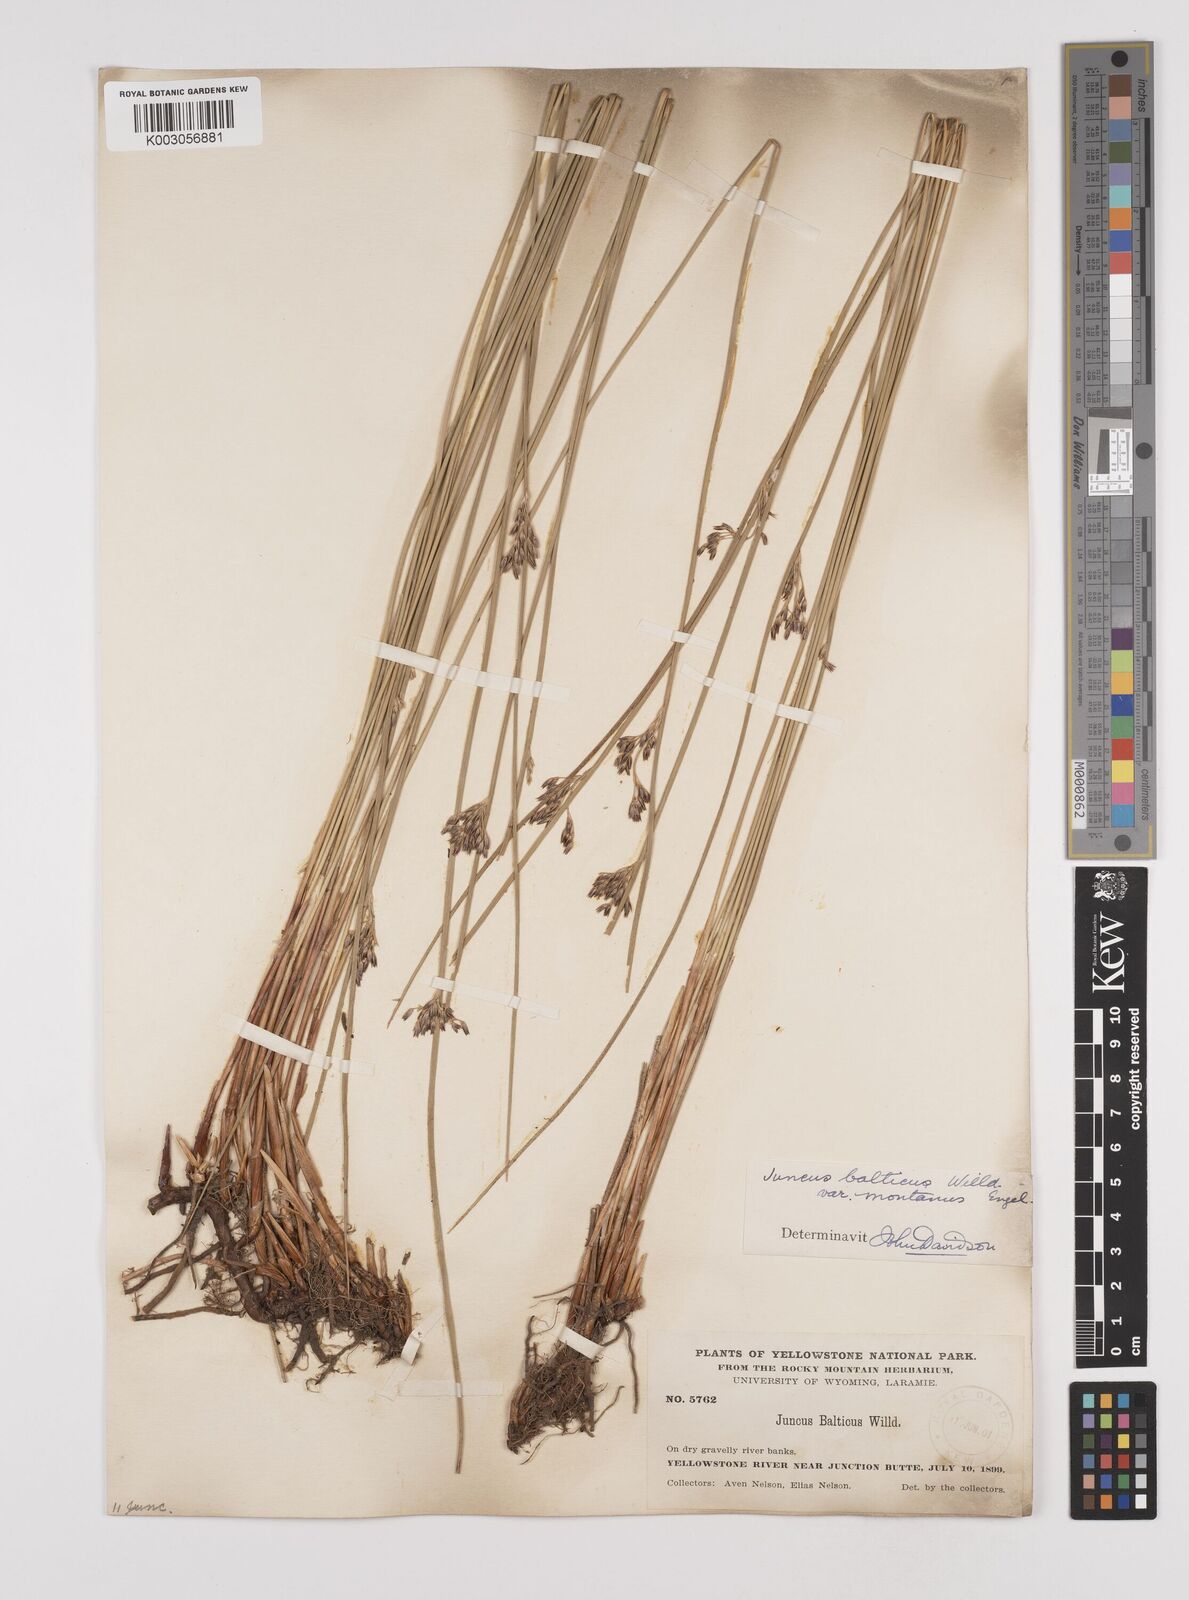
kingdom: Plantae
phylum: Tracheophyta
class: Liliopsida
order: Poales
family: Juncaceae
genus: Juncus
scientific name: Juncus
